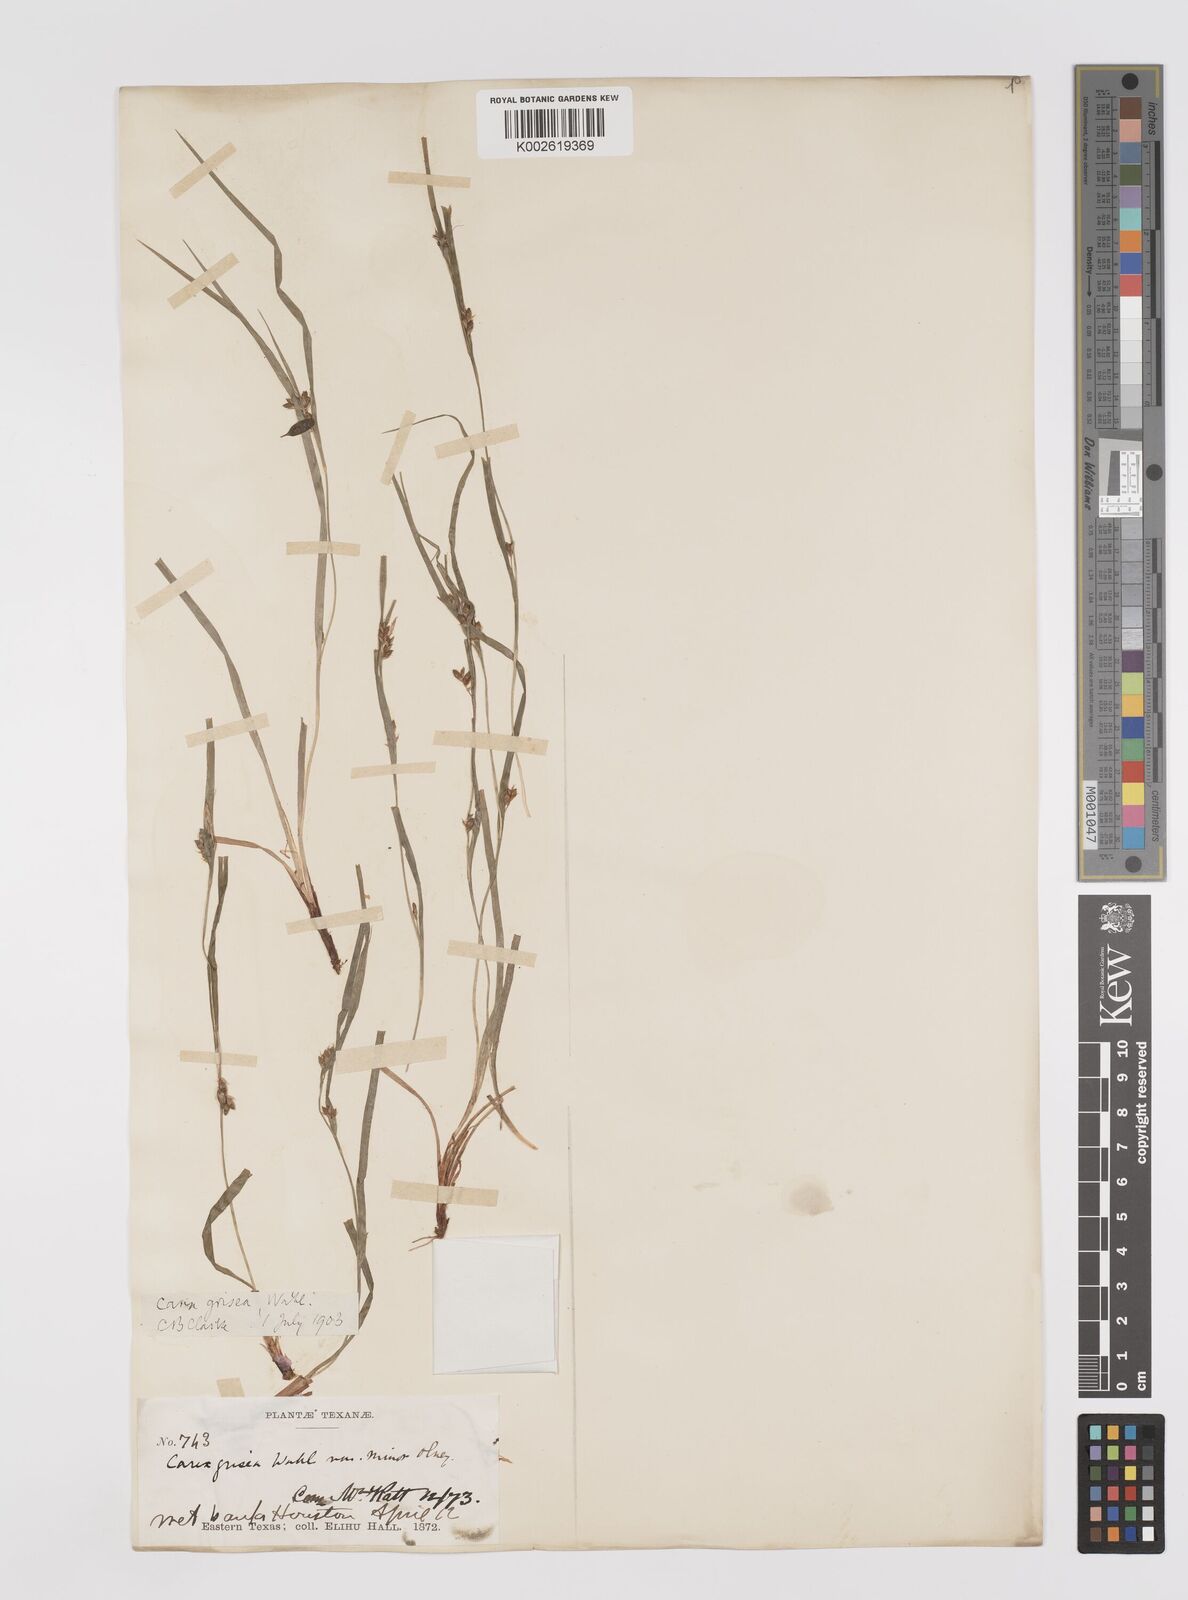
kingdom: Plantae
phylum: Tracheophyta
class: Liliopsida
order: Poales
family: Cyperaceae
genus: Carex
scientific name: Carex grisea
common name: Eastern narrow-leaved sedge
